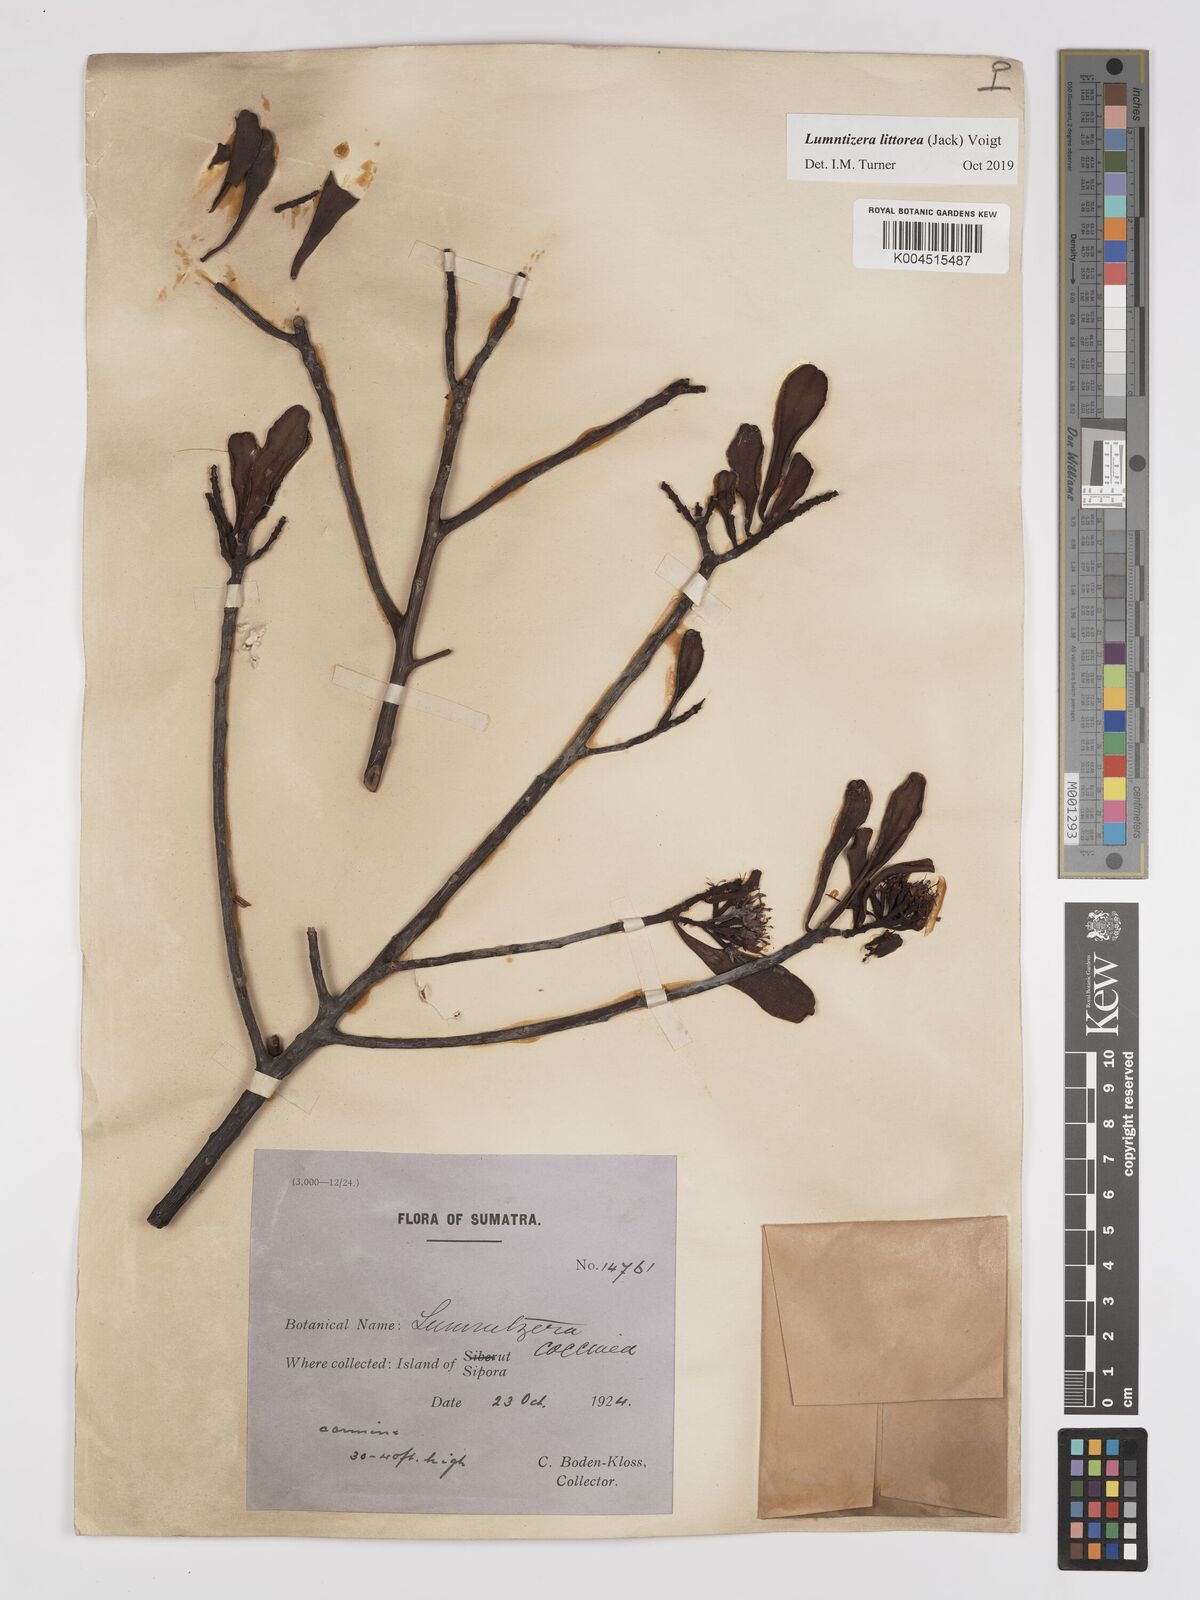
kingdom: Plantae
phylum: Tracheophyta
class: Magnoliopsida
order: Myrtales
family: Combretaceae
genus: Lumnitzera
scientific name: Lumnitzera littorea
